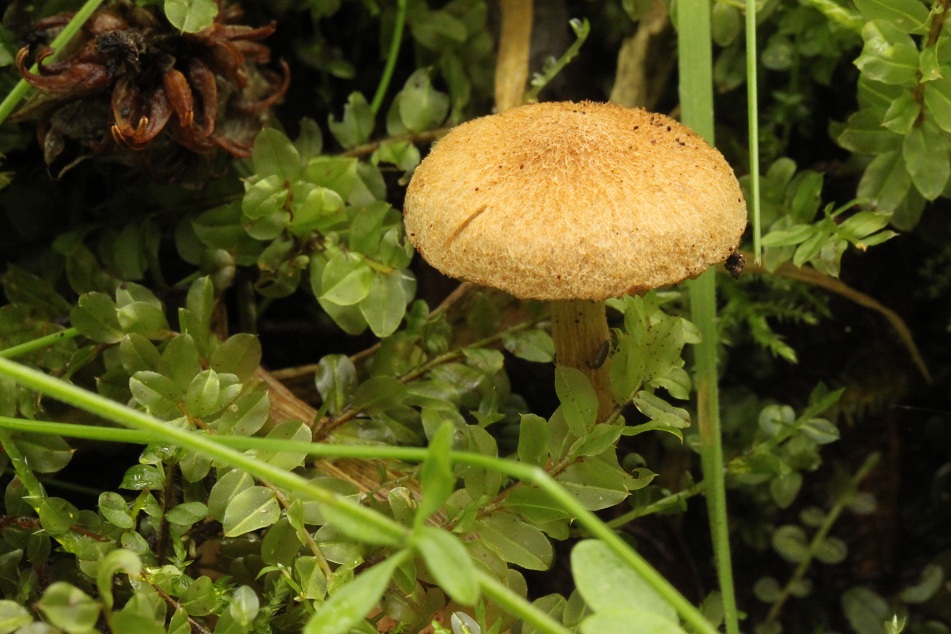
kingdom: Fungi
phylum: Basidiomycota
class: Agaricomycetes
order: Agaricales
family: Inocybaceae
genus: Inocybe
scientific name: Inocybe dulcamara
